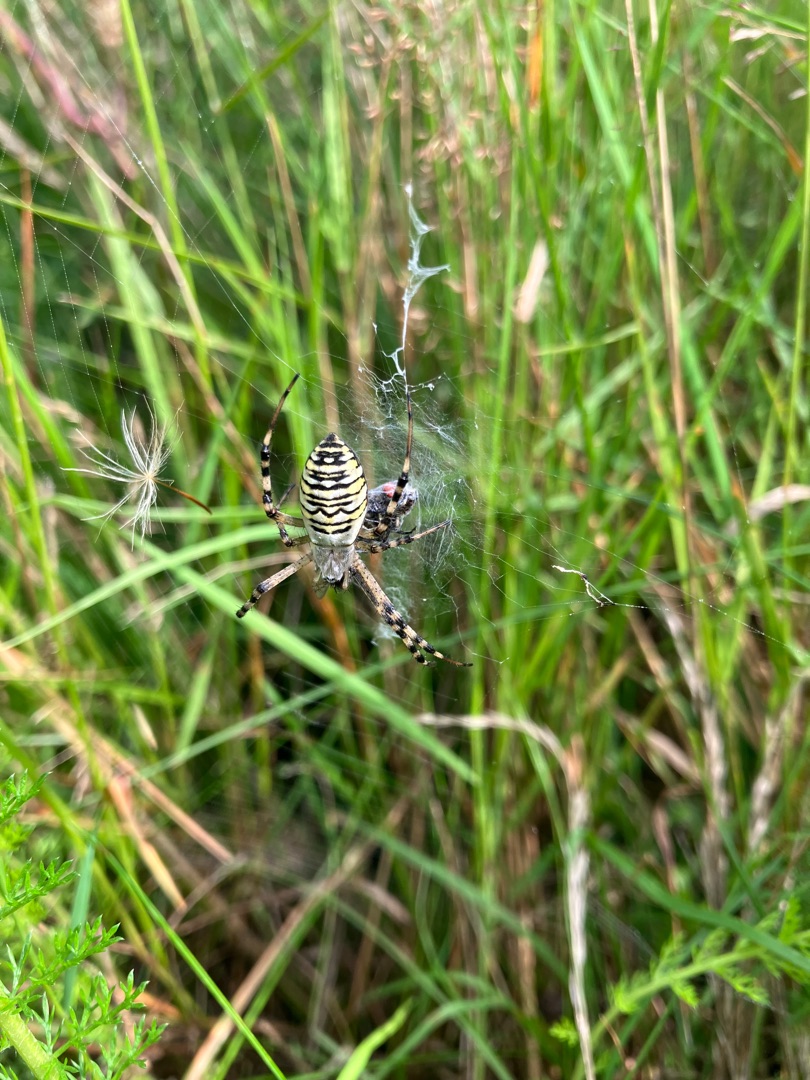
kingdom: Animalia
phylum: Arthropoda
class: Arachnida
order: Araneae
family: Araneidae
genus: Argiope
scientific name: Argiope bruennichi
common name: Hvepseedderkop
